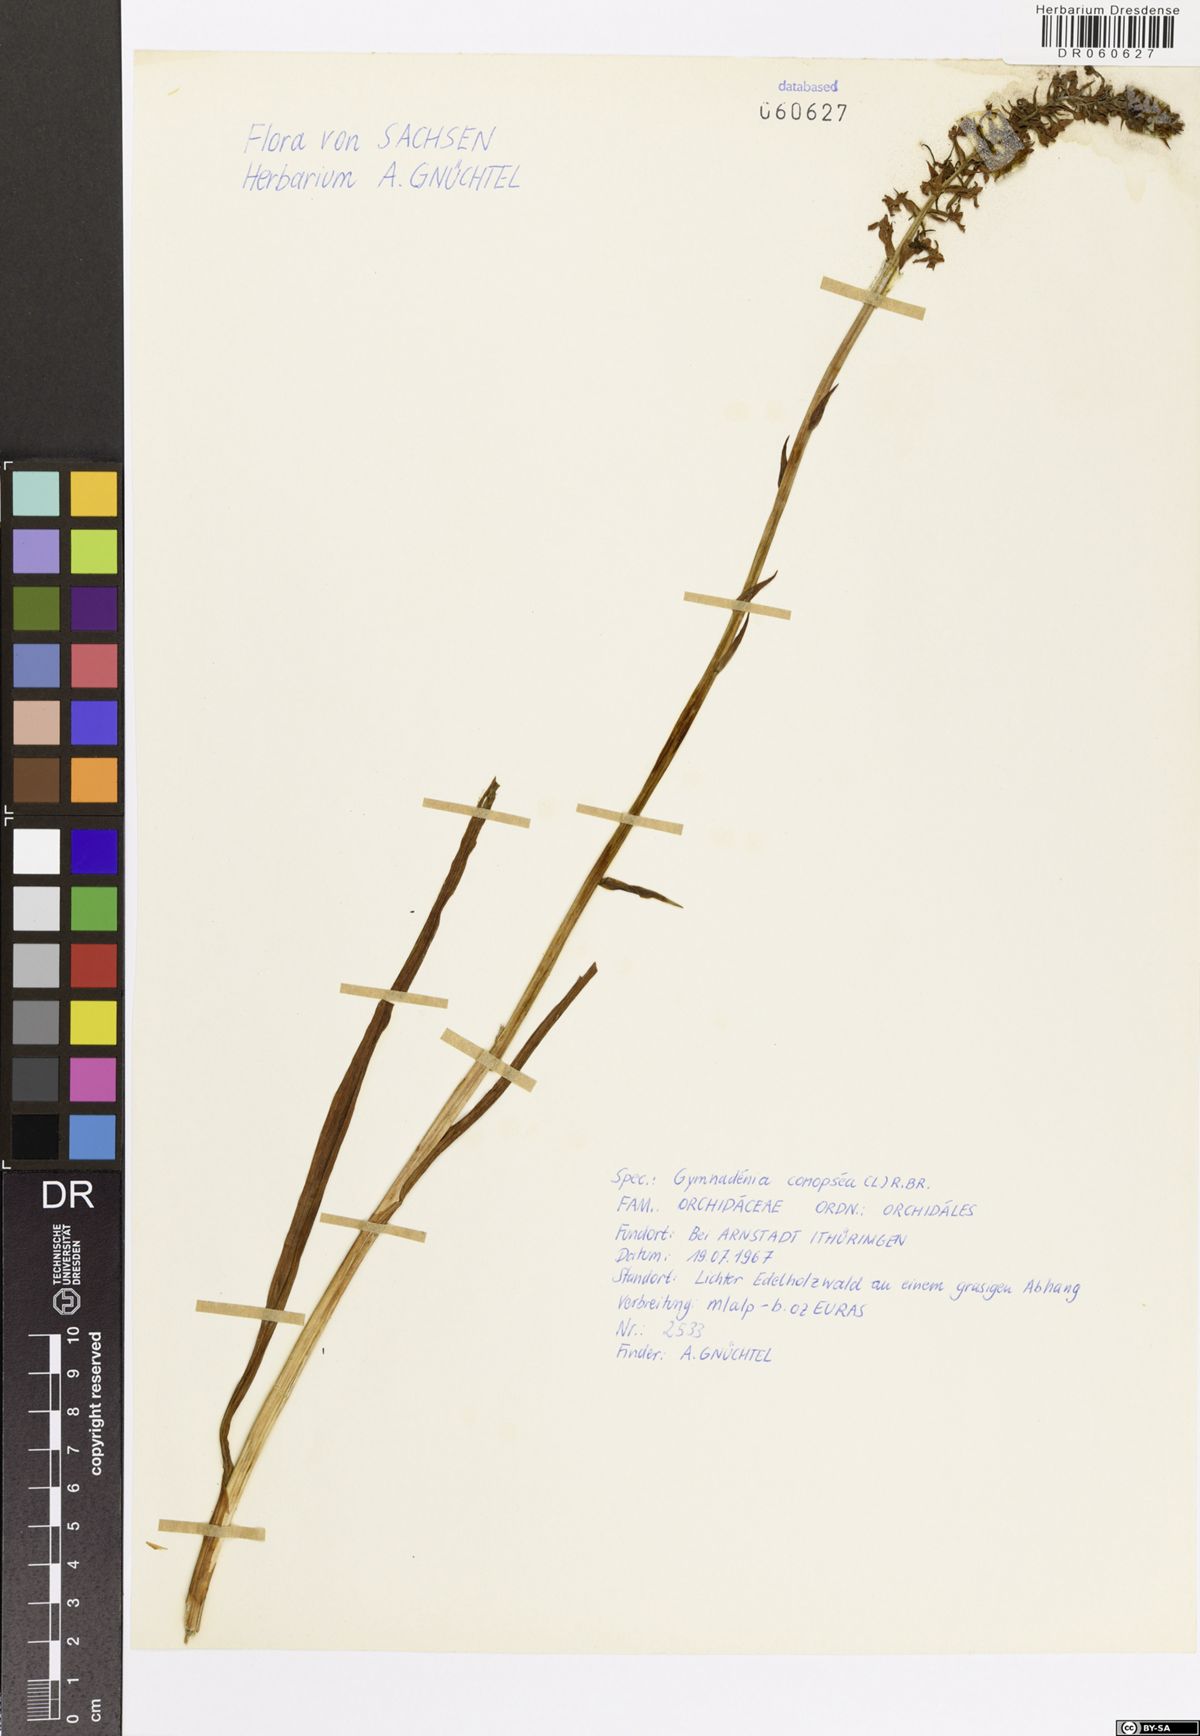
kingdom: Plantae
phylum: Tracheophyta
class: Liliopsida
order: Asparagales
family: Orchidaceae
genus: Gymnadenia
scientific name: Gymnadenia conopsea
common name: Fragrant orchid
